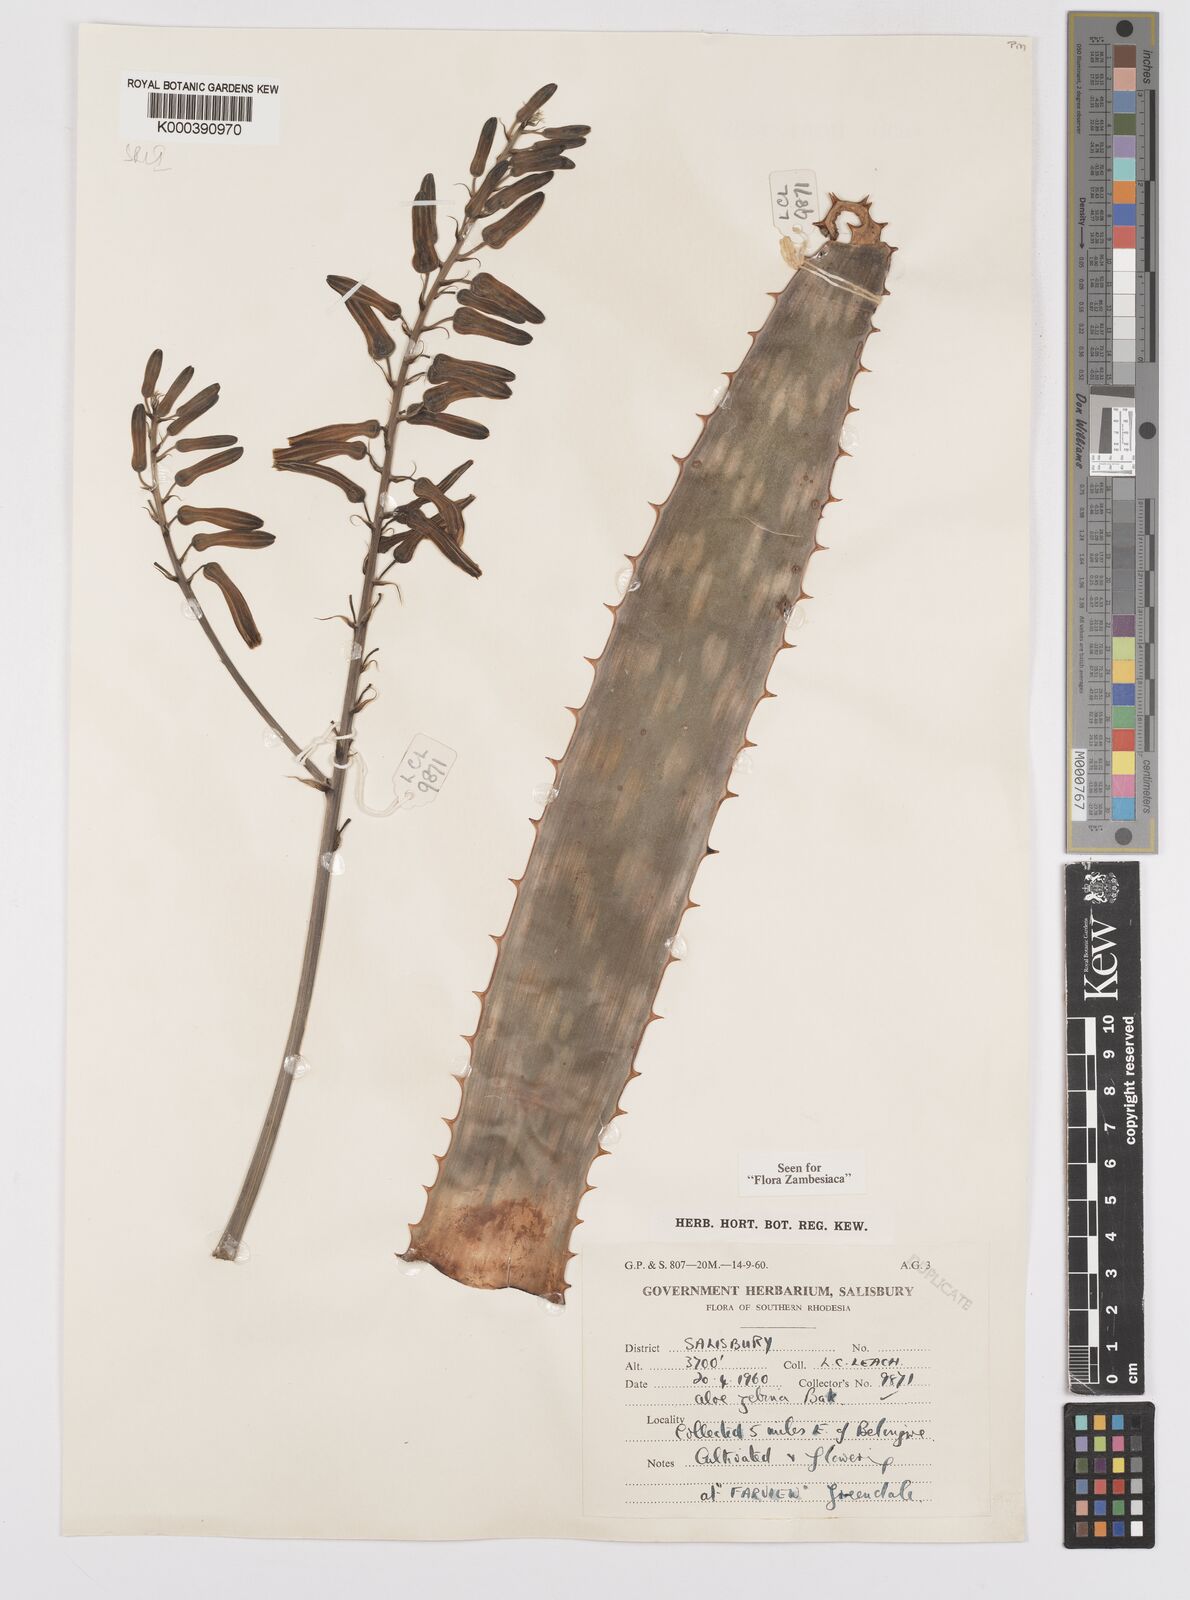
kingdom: Plantae
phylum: Tracheophyta
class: Liliopsida
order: Asparagales
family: Asphodelaceae
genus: Aloe
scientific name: Aloe zebrina
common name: Zebra-leaf aloe
